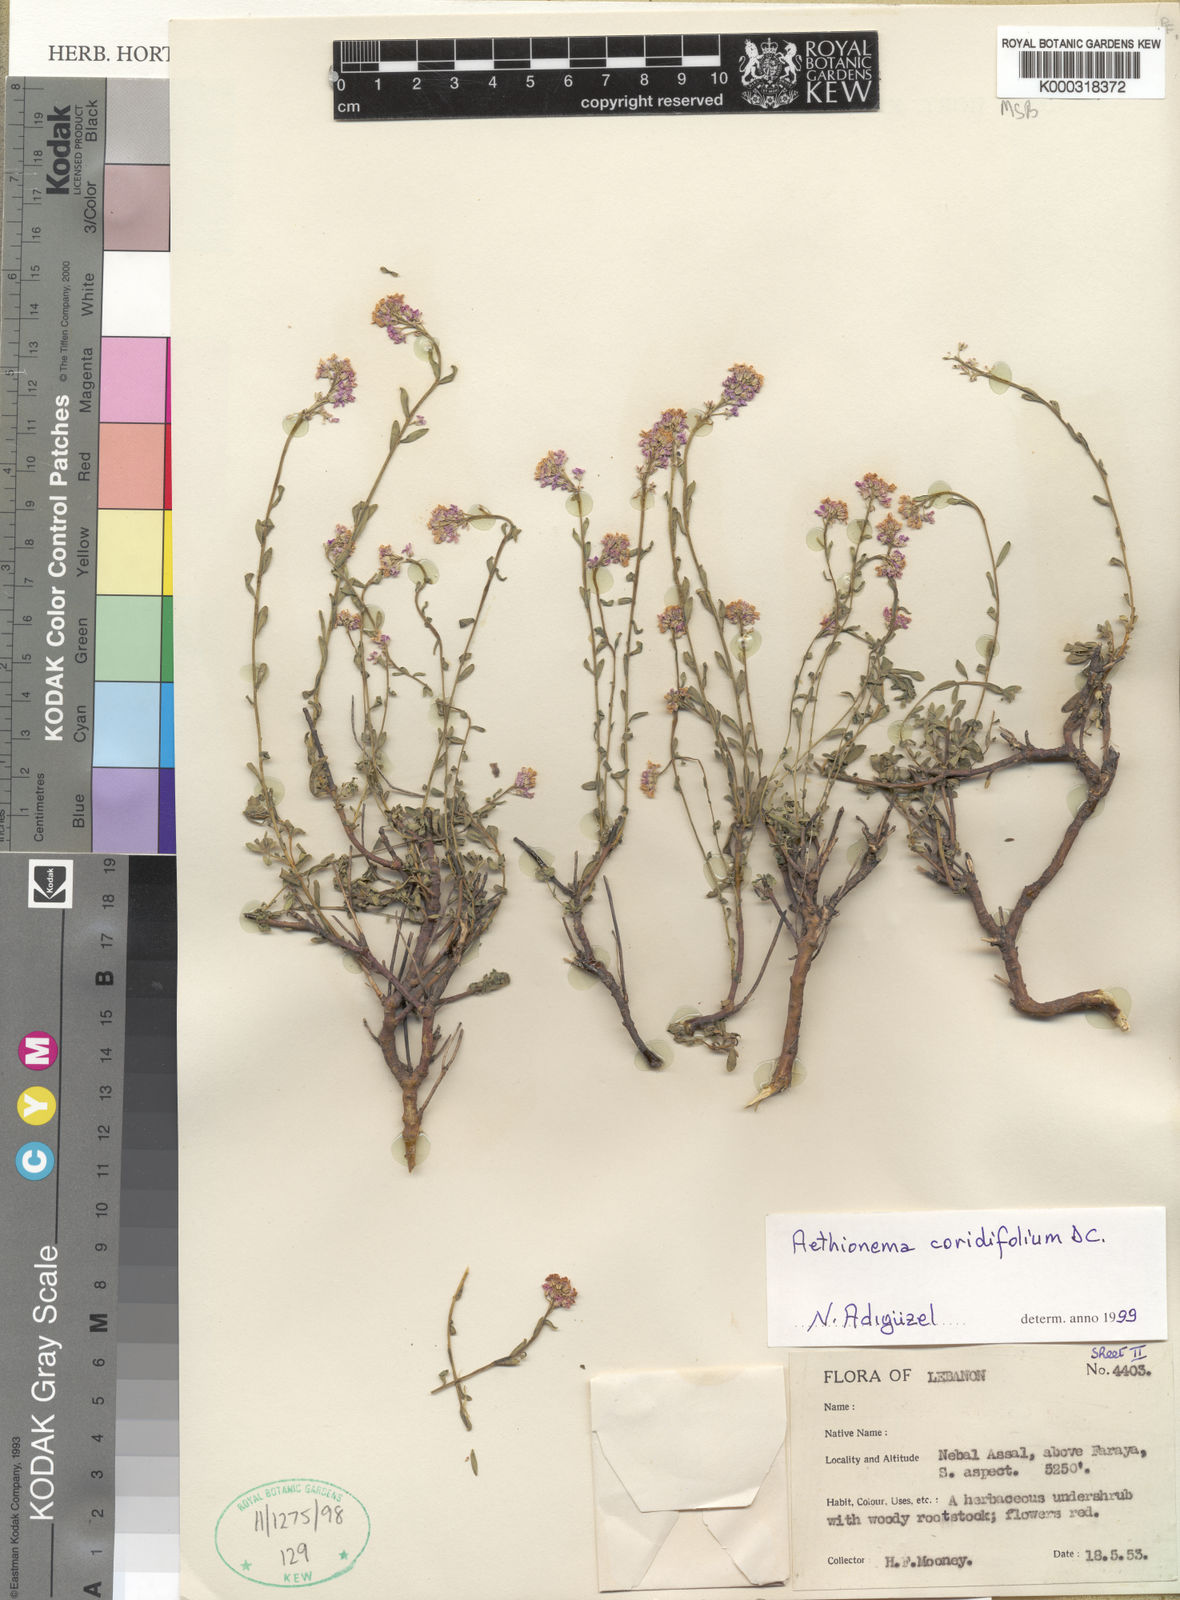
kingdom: Plantae
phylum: Tracheophyta
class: Magnoliopsida
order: Brassicales
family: Brassicaceae
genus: Aethionema
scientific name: Aethionema coridifolium
